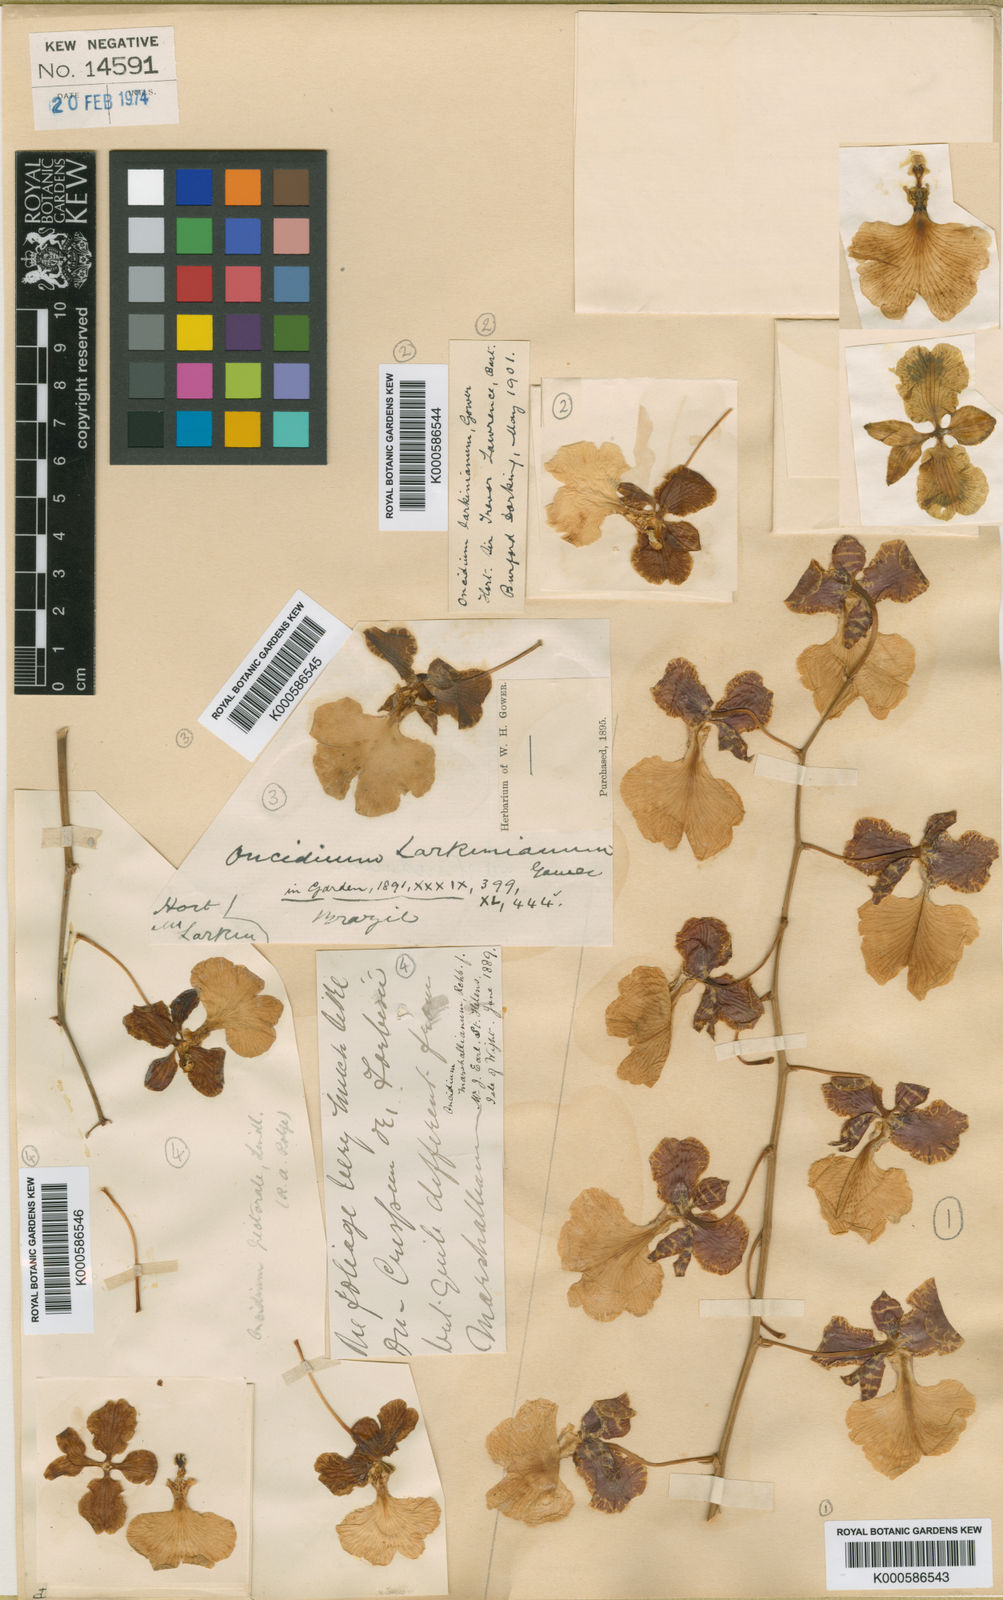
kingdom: Plantae
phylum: Tracheophyta
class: Liliopsida
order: Asparagales
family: Orchidaceae
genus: Gomesa
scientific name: Gomesa pectoralis
